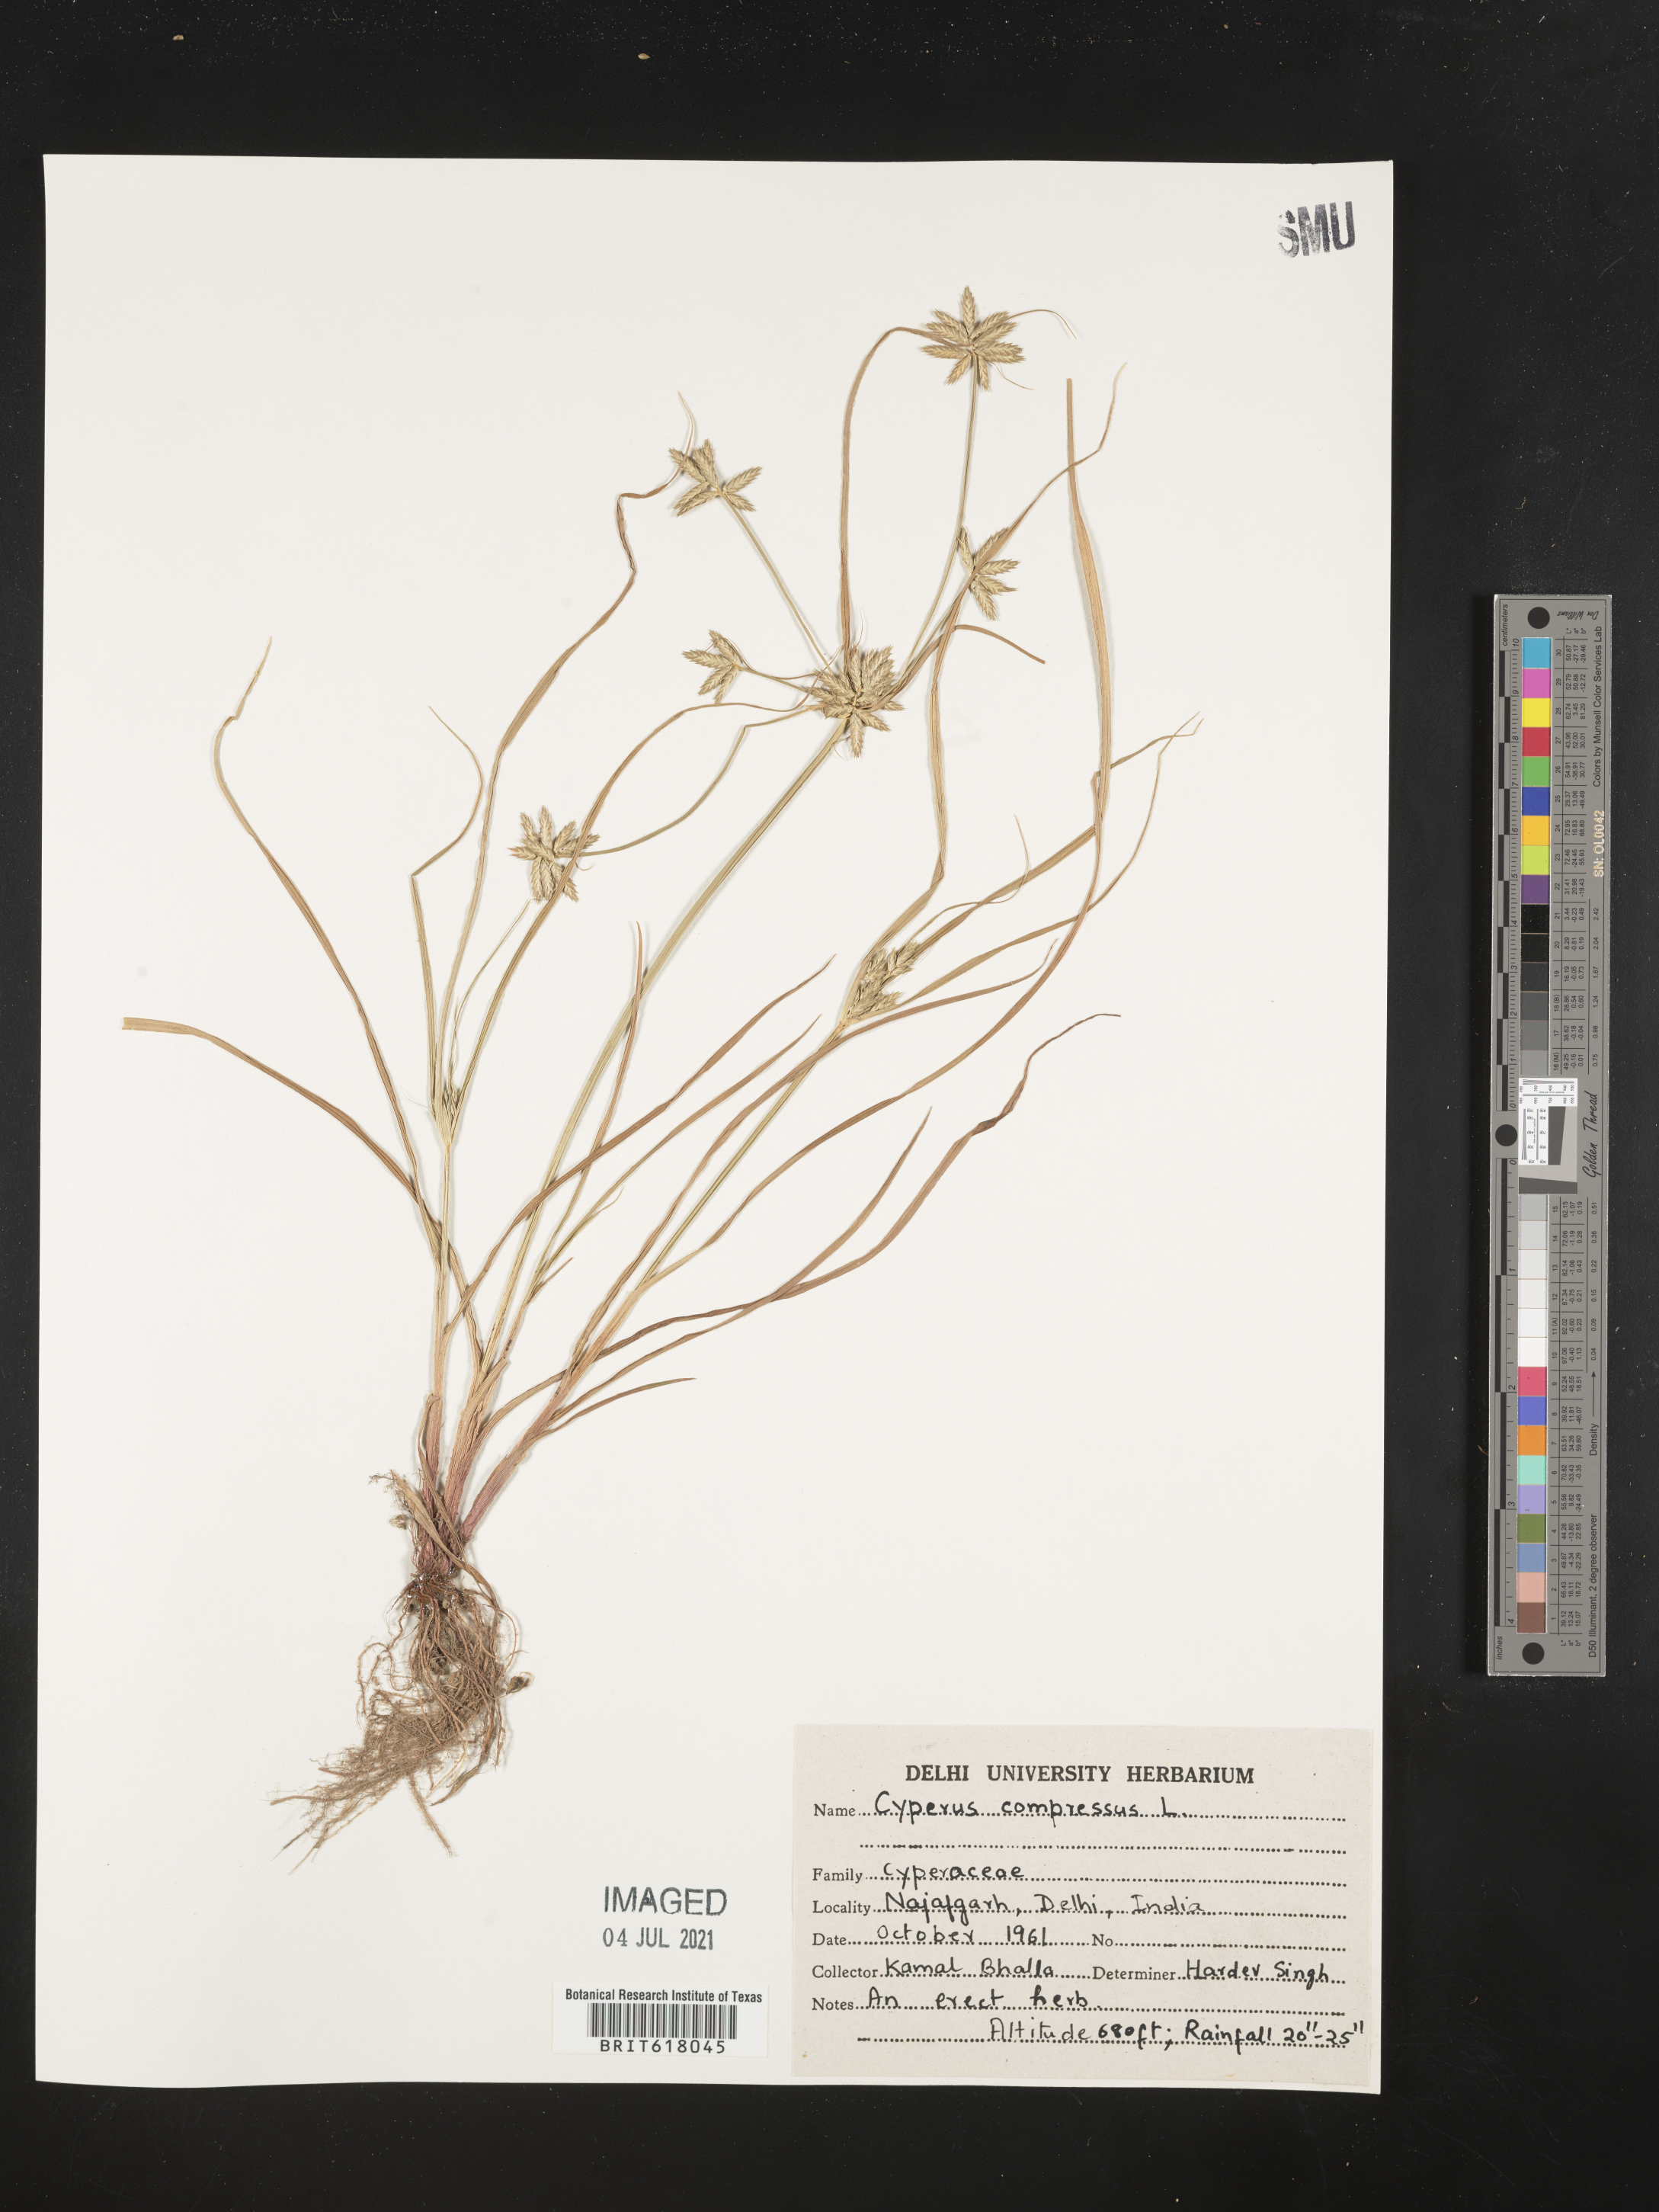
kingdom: Plantae
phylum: Tracheophyta
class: Liliopsida
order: Poales
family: Cyperaceae
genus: Cyperus
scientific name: Cyperus compressus
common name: Poorland flatsedge
